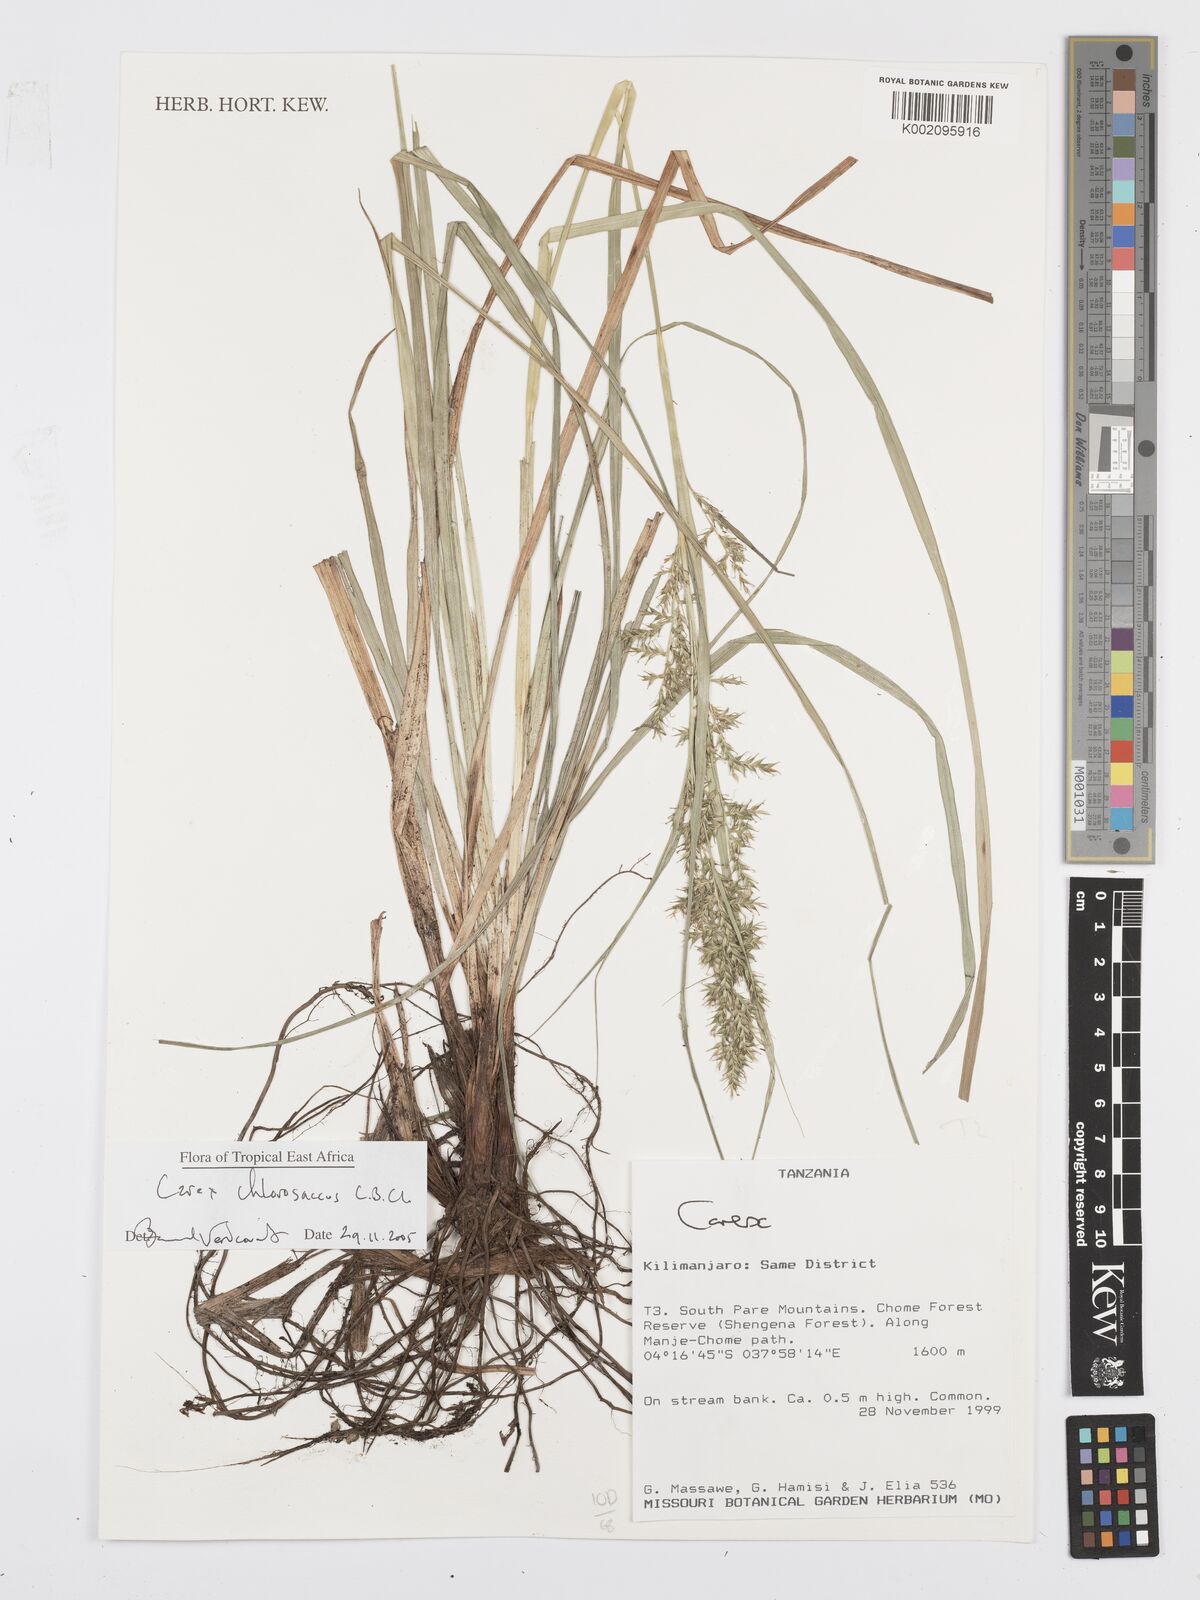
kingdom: Plantae
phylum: Tracheophyta
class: Liliopsida
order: Poales
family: Cyperaceae
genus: Carex
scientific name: Carex chlorosaccus
